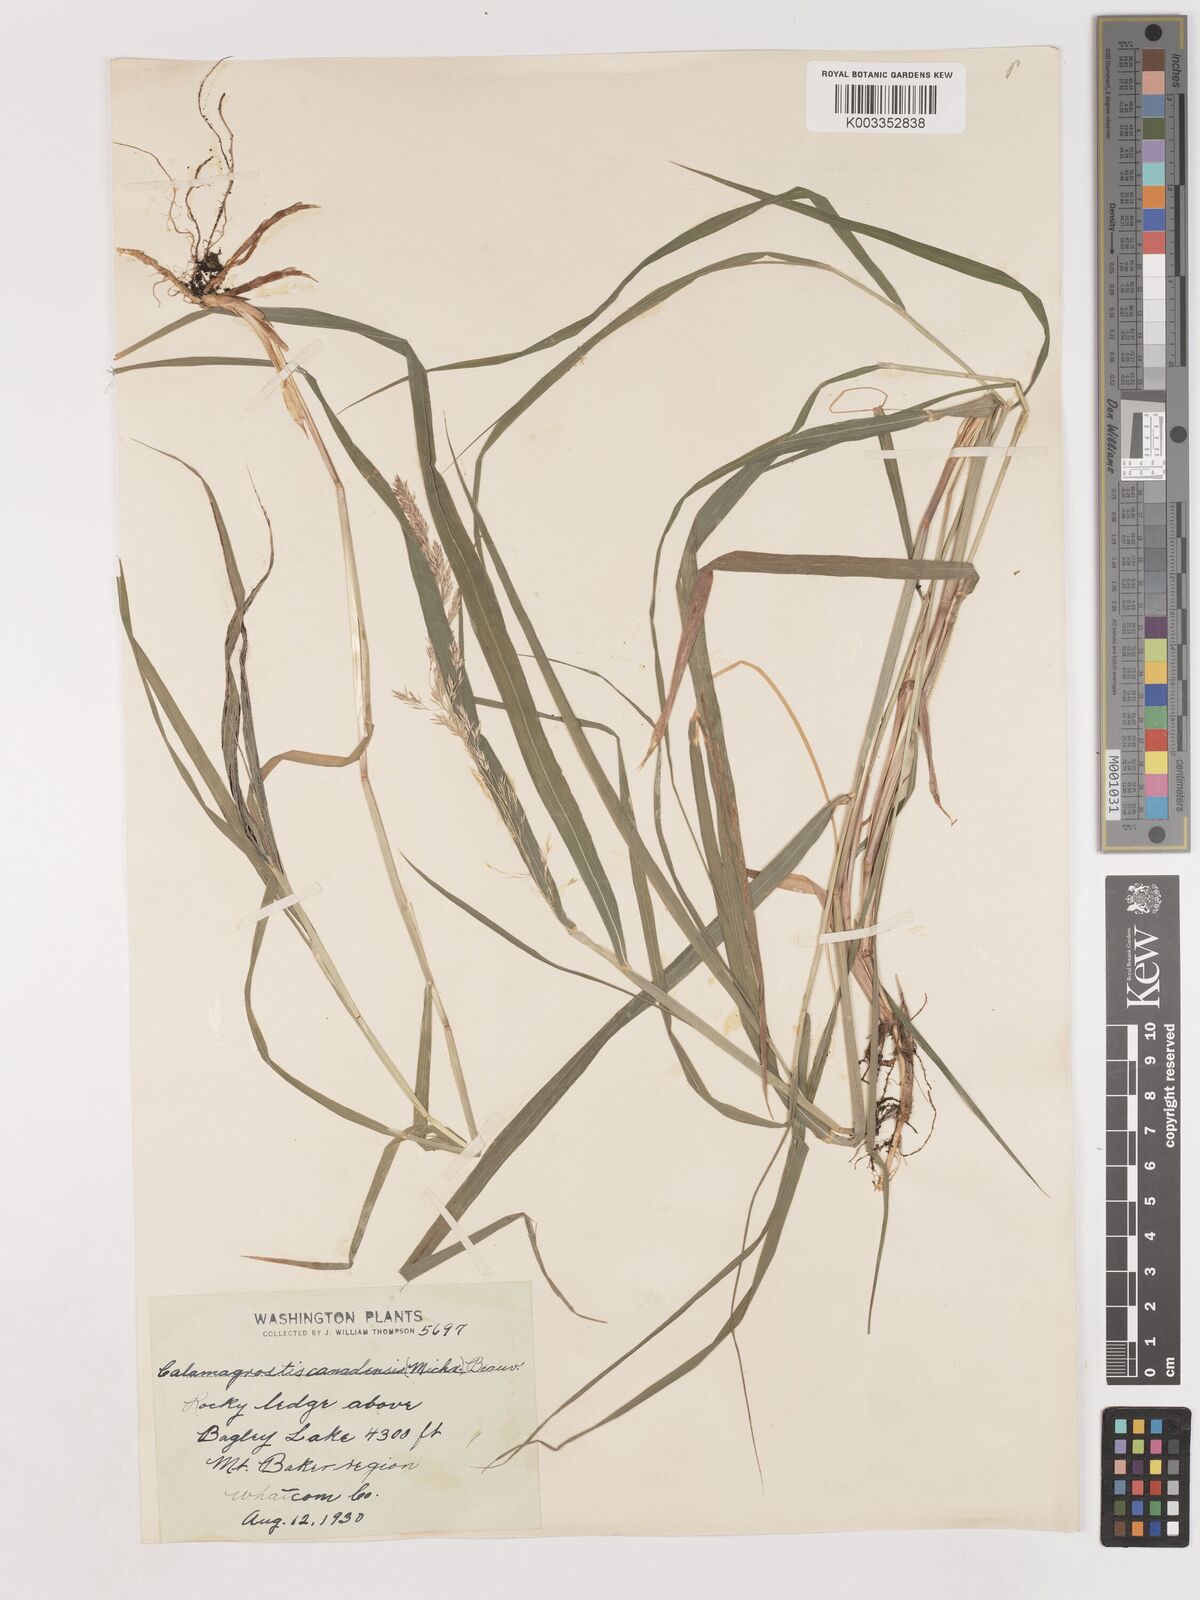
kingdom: Plantae
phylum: Tracheophyta
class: Liliopsida
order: Poales
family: Poaceae
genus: Calamagrostis
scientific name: Calamagrostis canadensis
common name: Canada bluejoint
